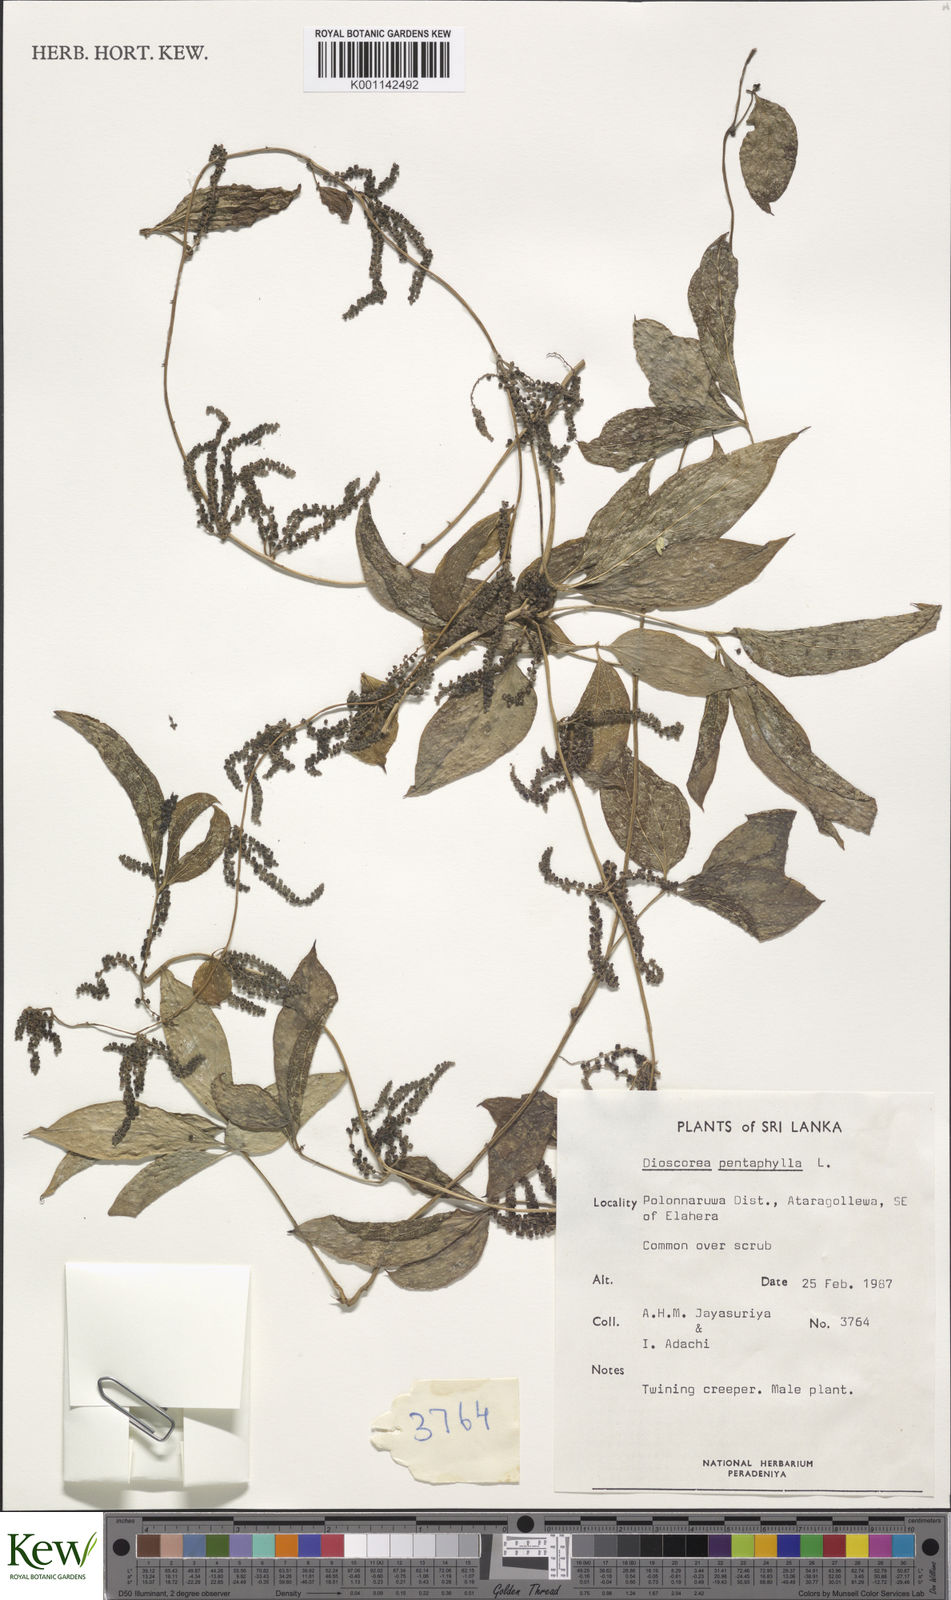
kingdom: Plantae
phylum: Tracheophyta
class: Liliopsida
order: Dioscoreales
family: Dioscoreaceae
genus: Dioscorea
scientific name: Dioscorea pentaphylla
